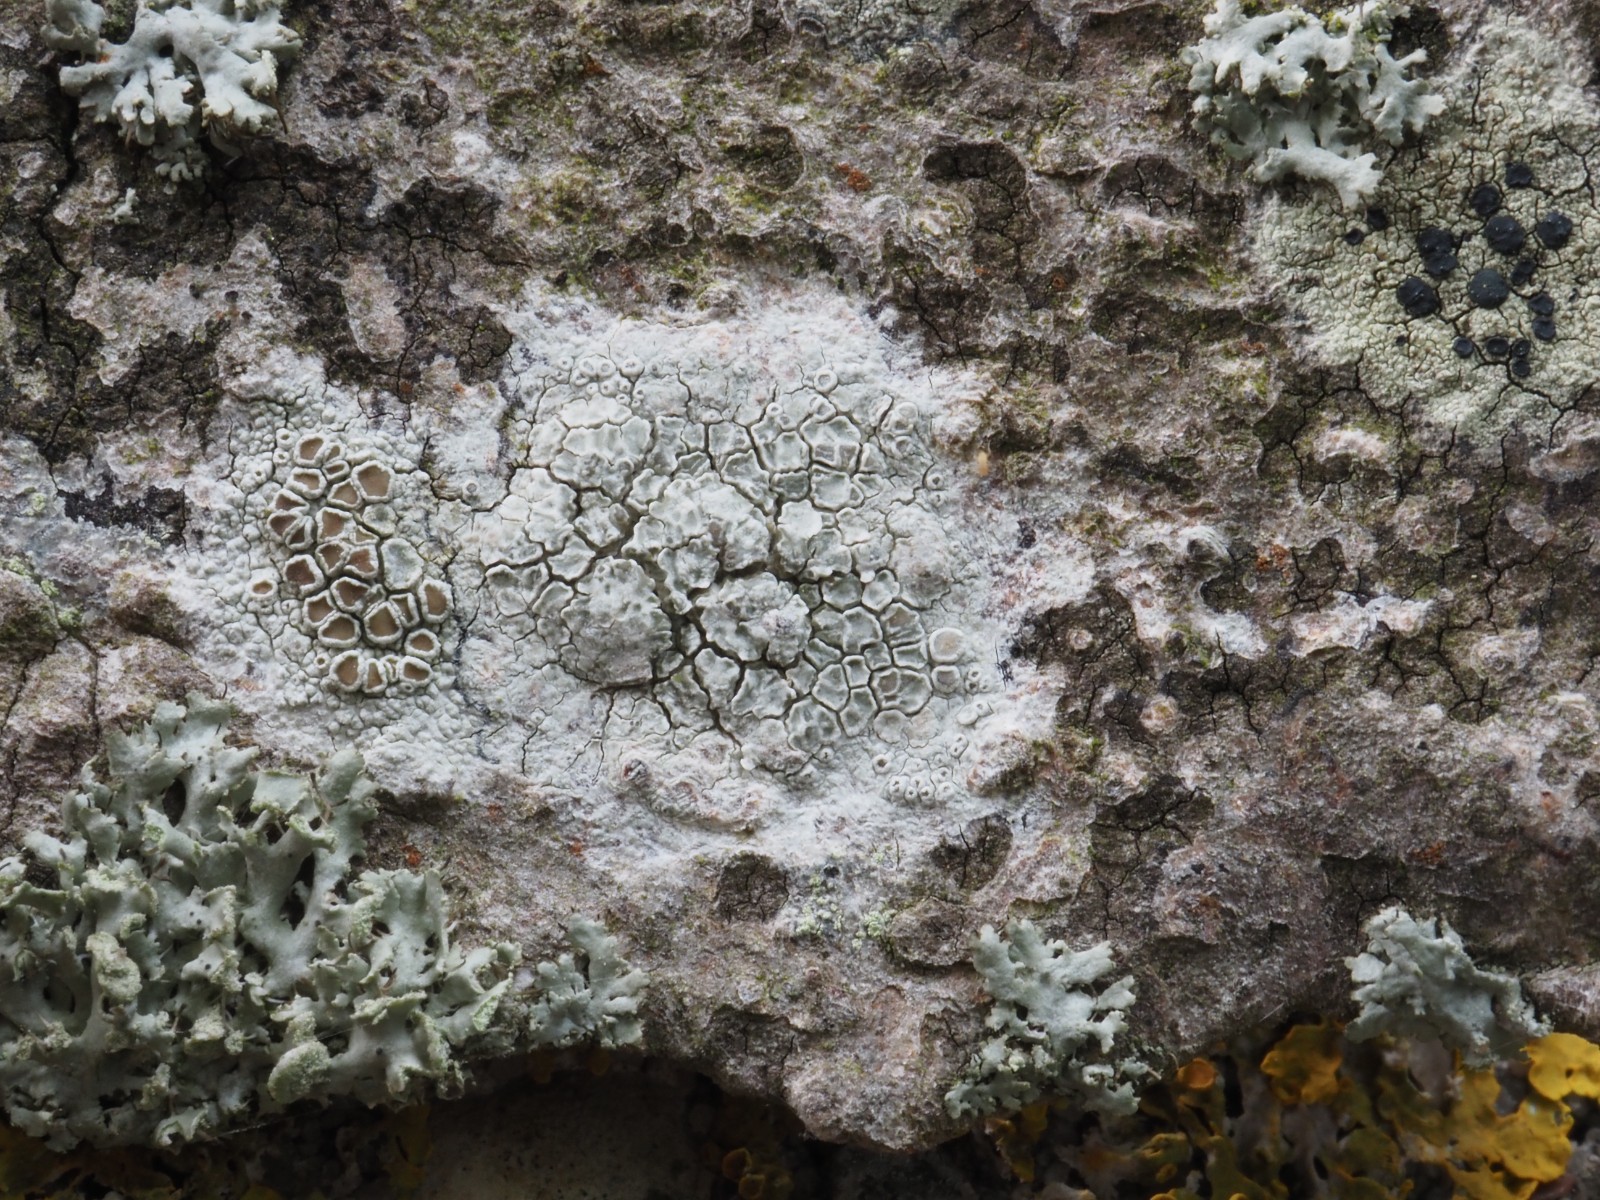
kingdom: Fungi
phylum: Ascomycota
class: Lecanoromycetes
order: Lecanorales
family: Lecanoraceae
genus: Lecanora
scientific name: Lecanora chlarotera
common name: brun kantskivelav
